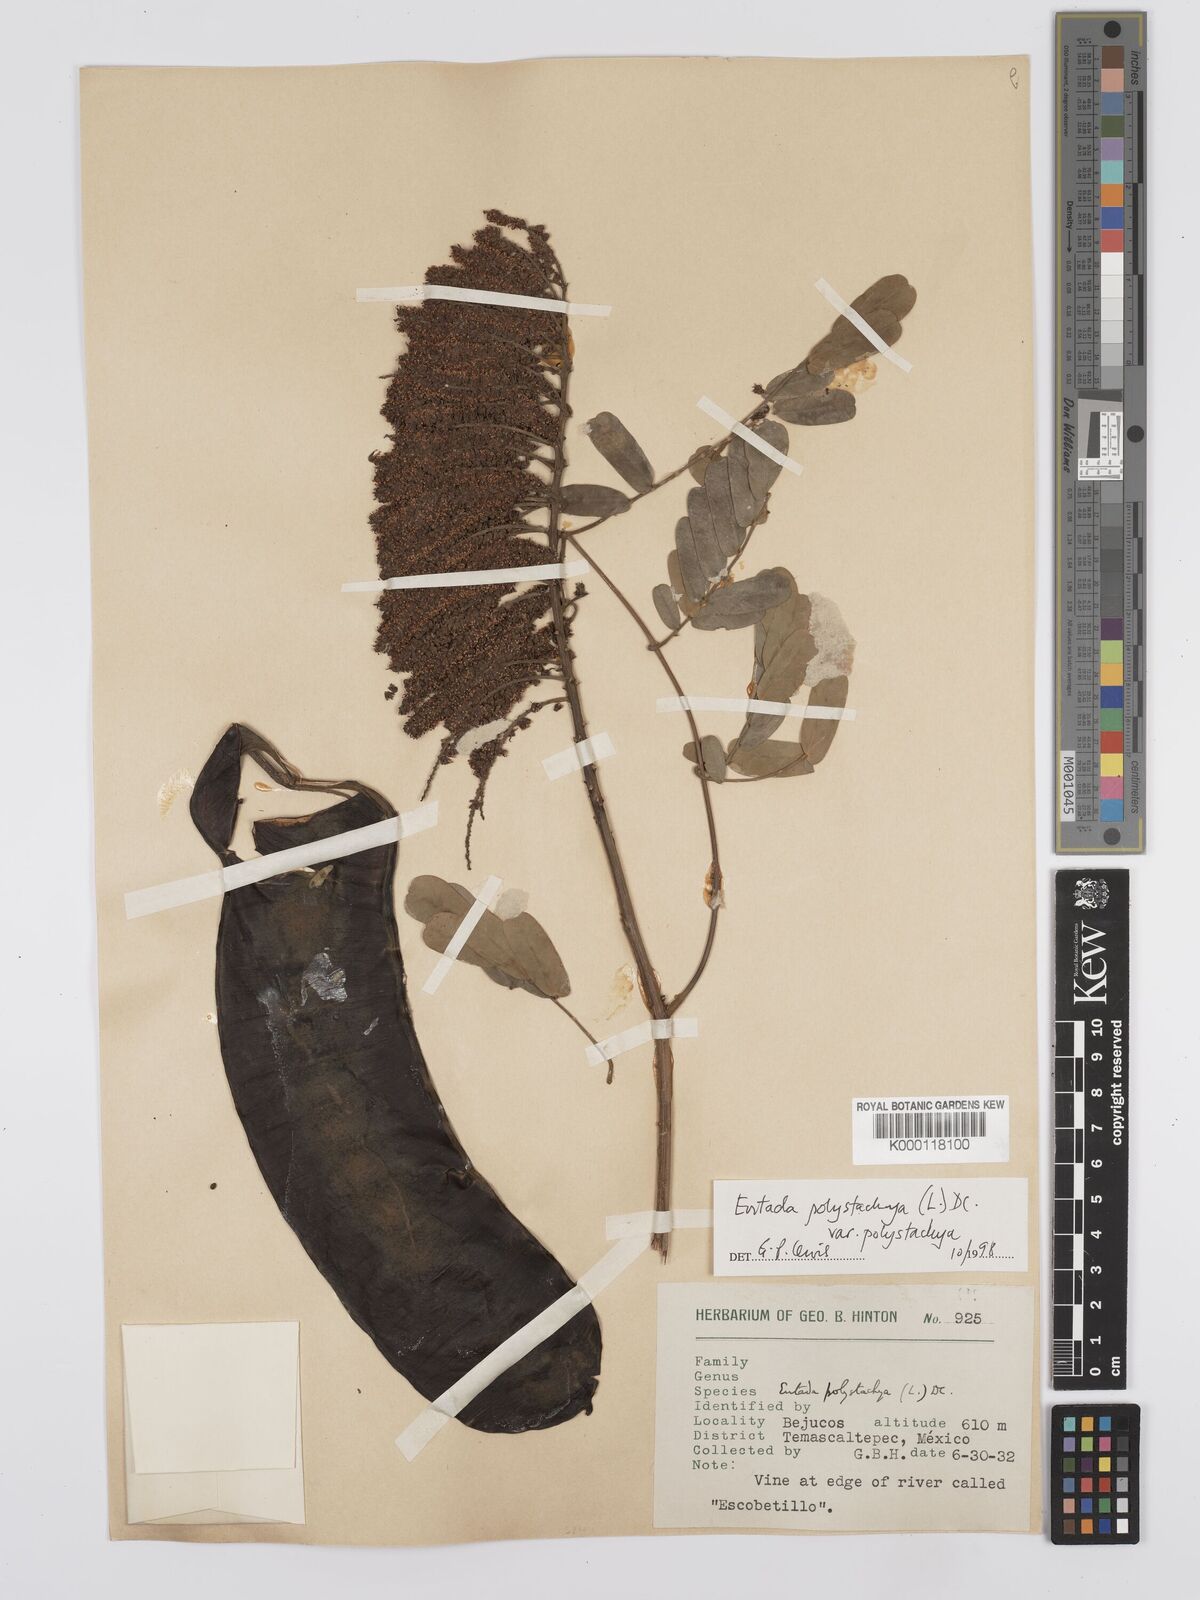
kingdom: Plantae
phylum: Tracheophyta
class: Magnoliopsida
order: Fabales
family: Fabaceae
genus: Entada
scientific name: Entada polystachya
